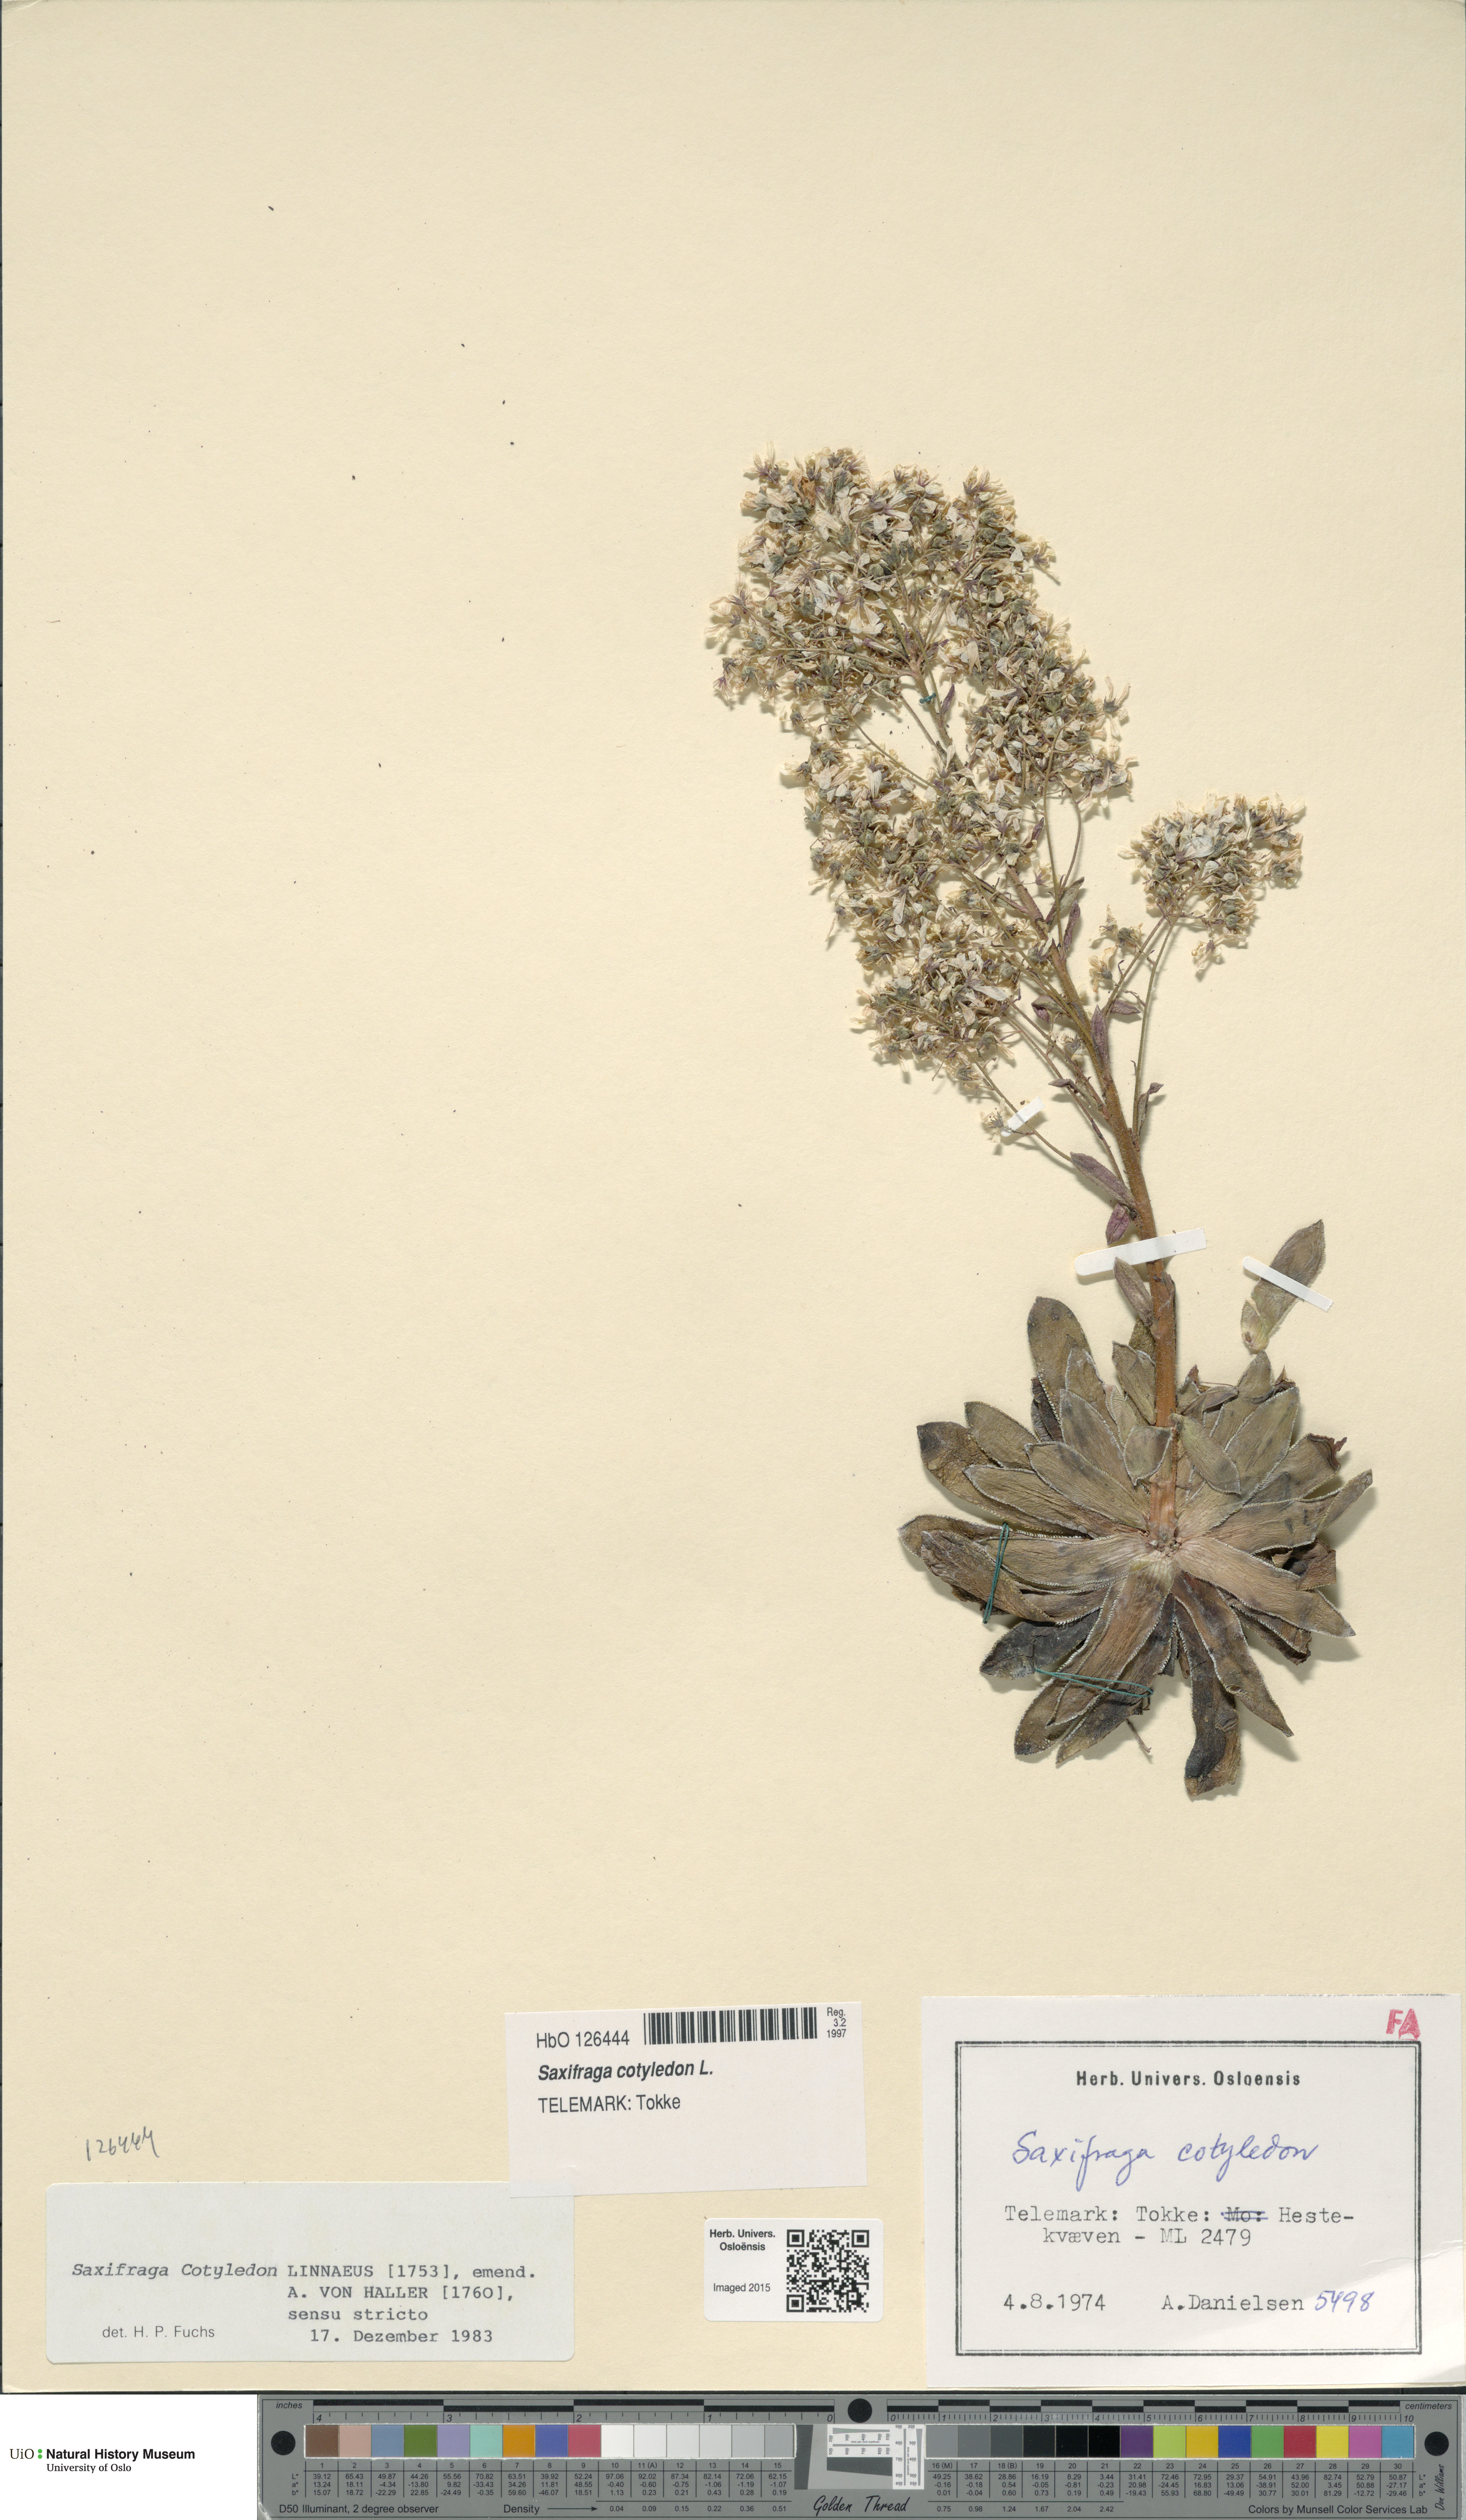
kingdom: Plantae
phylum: Tracheophyta
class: Magnoliopsida
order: Saxifragales
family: Saxifragaceae
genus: Saxifraga
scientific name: Saxifraga cotyledon
